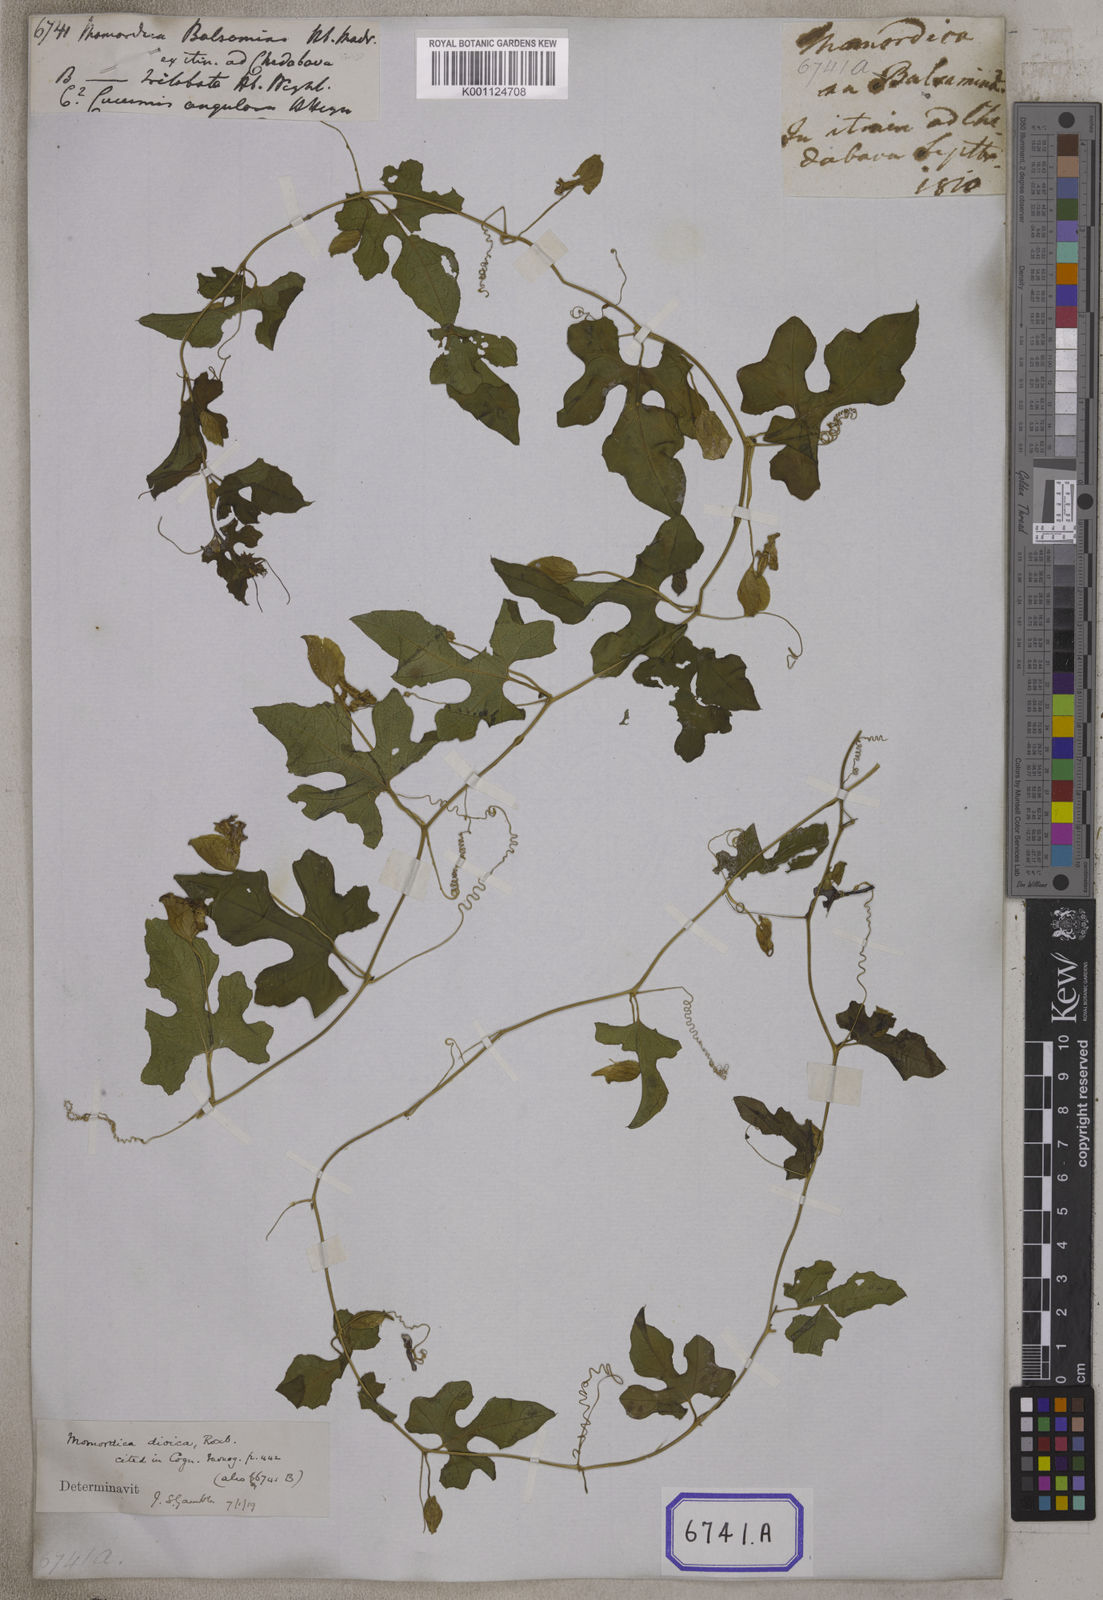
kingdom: Plantae
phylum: Tracheophyta
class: Magnoliopsida
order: Cucurbitales
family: Cucurbitaceae
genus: Momordica
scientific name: Momordica
